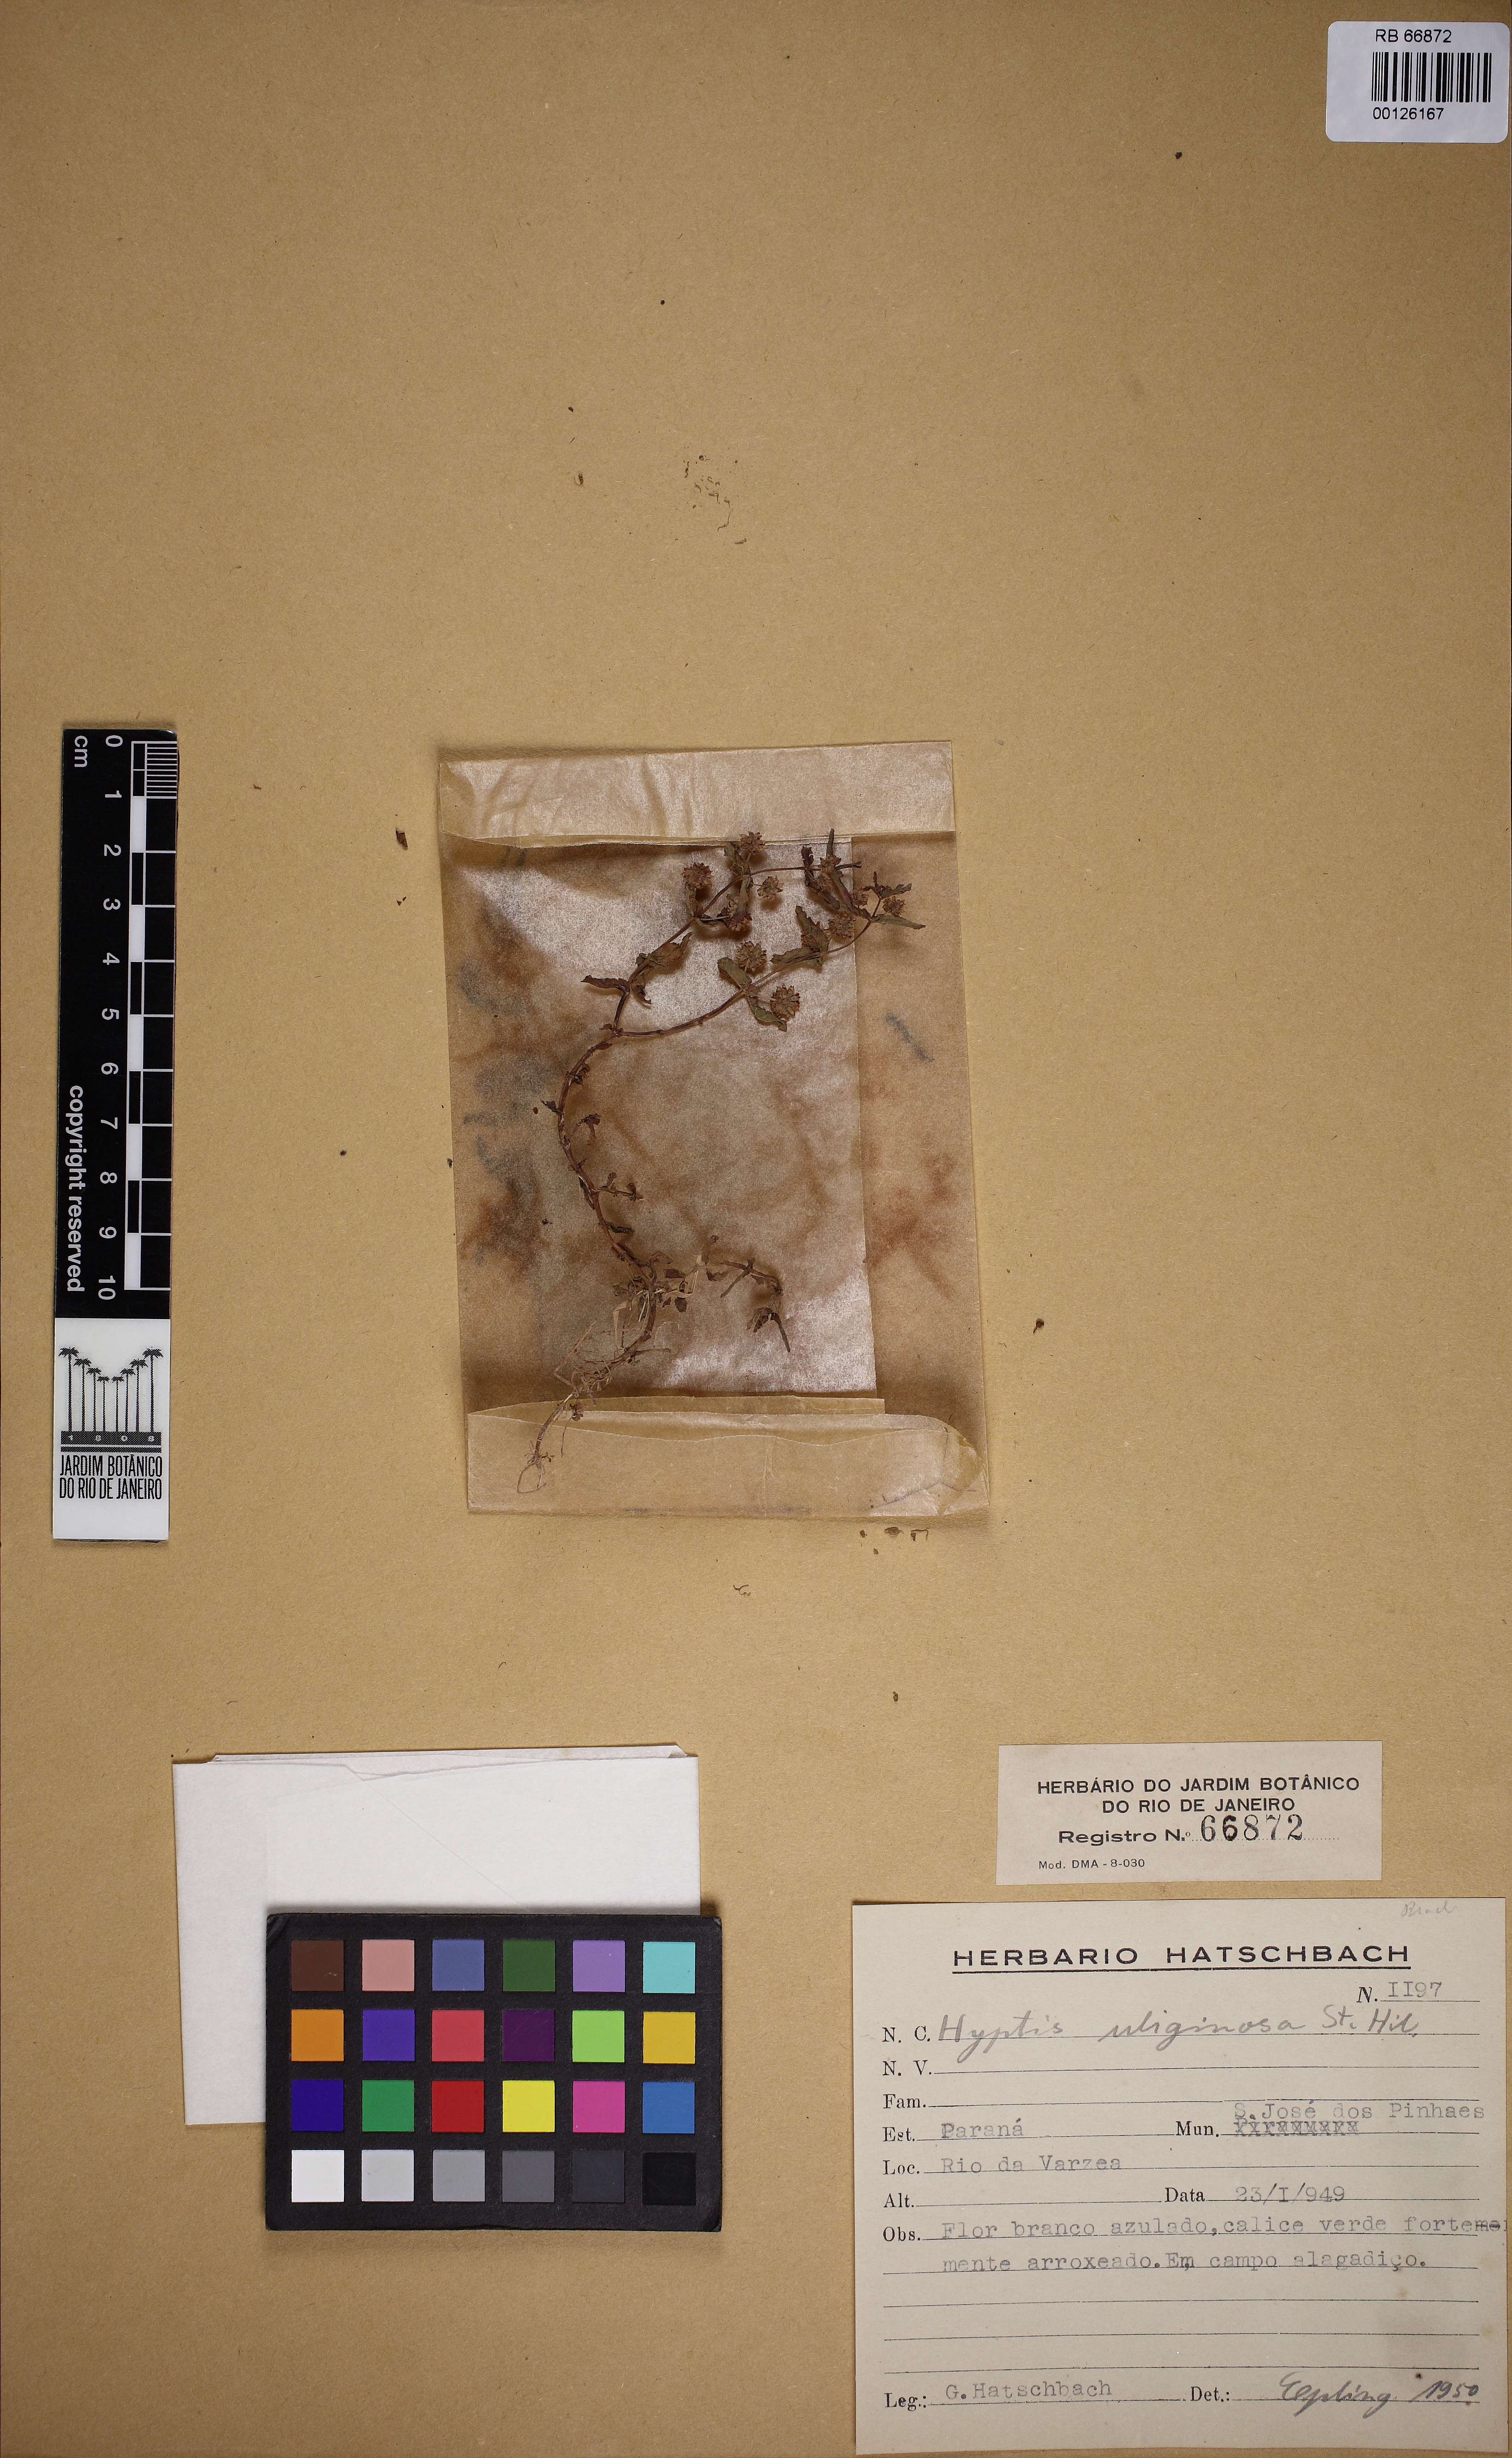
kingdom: Plantae
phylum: Tracheophyta
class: Magnoliopsida
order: Lamiales
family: Lamiaceae
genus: Hyptis
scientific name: Hyptis uliginosa
